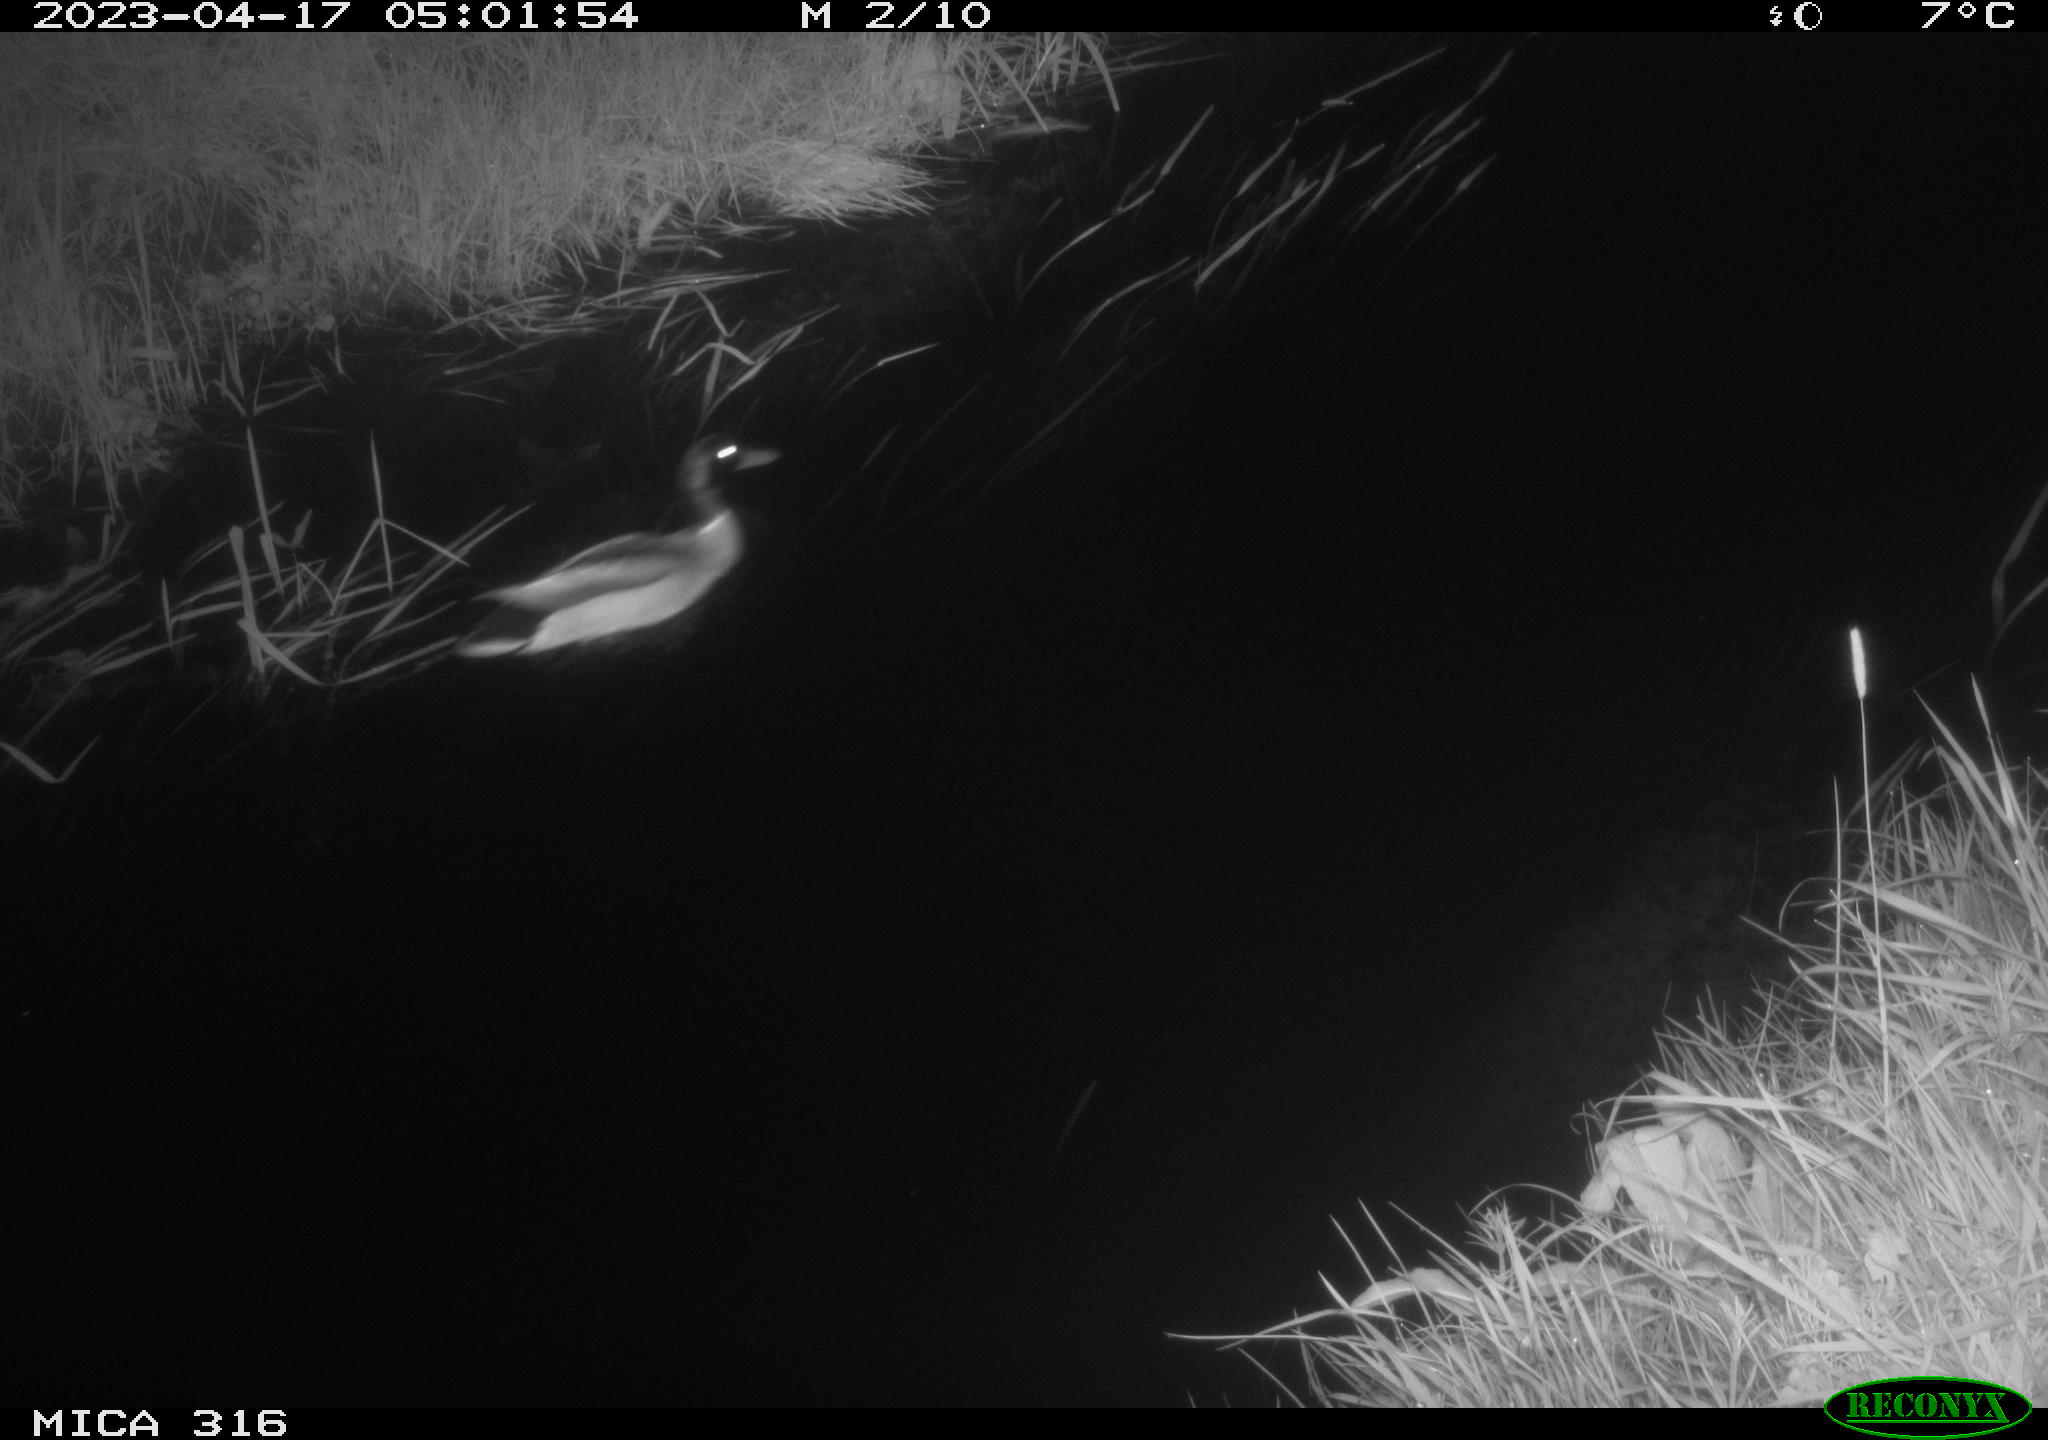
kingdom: Animalia
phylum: Chordata
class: Aves
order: Anseriformes
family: Anatidae
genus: Anas
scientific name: Anas
